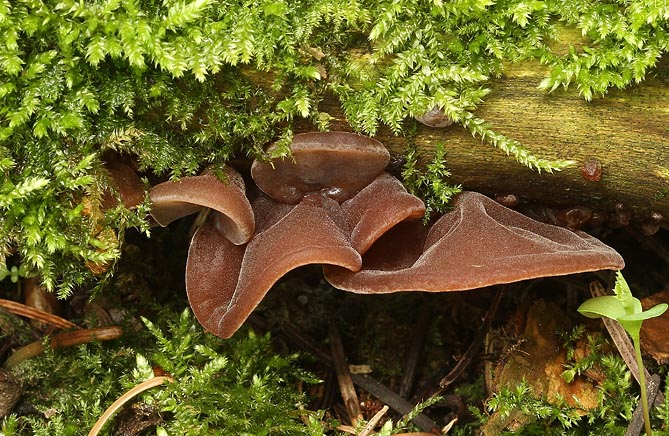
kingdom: Fungi
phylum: Basidiomycota
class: Agaricomycetes
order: Auriculariales
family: Auriculariaceae
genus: Auricularia
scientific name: Auricularia auricula-judae
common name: almindelig judasøre
